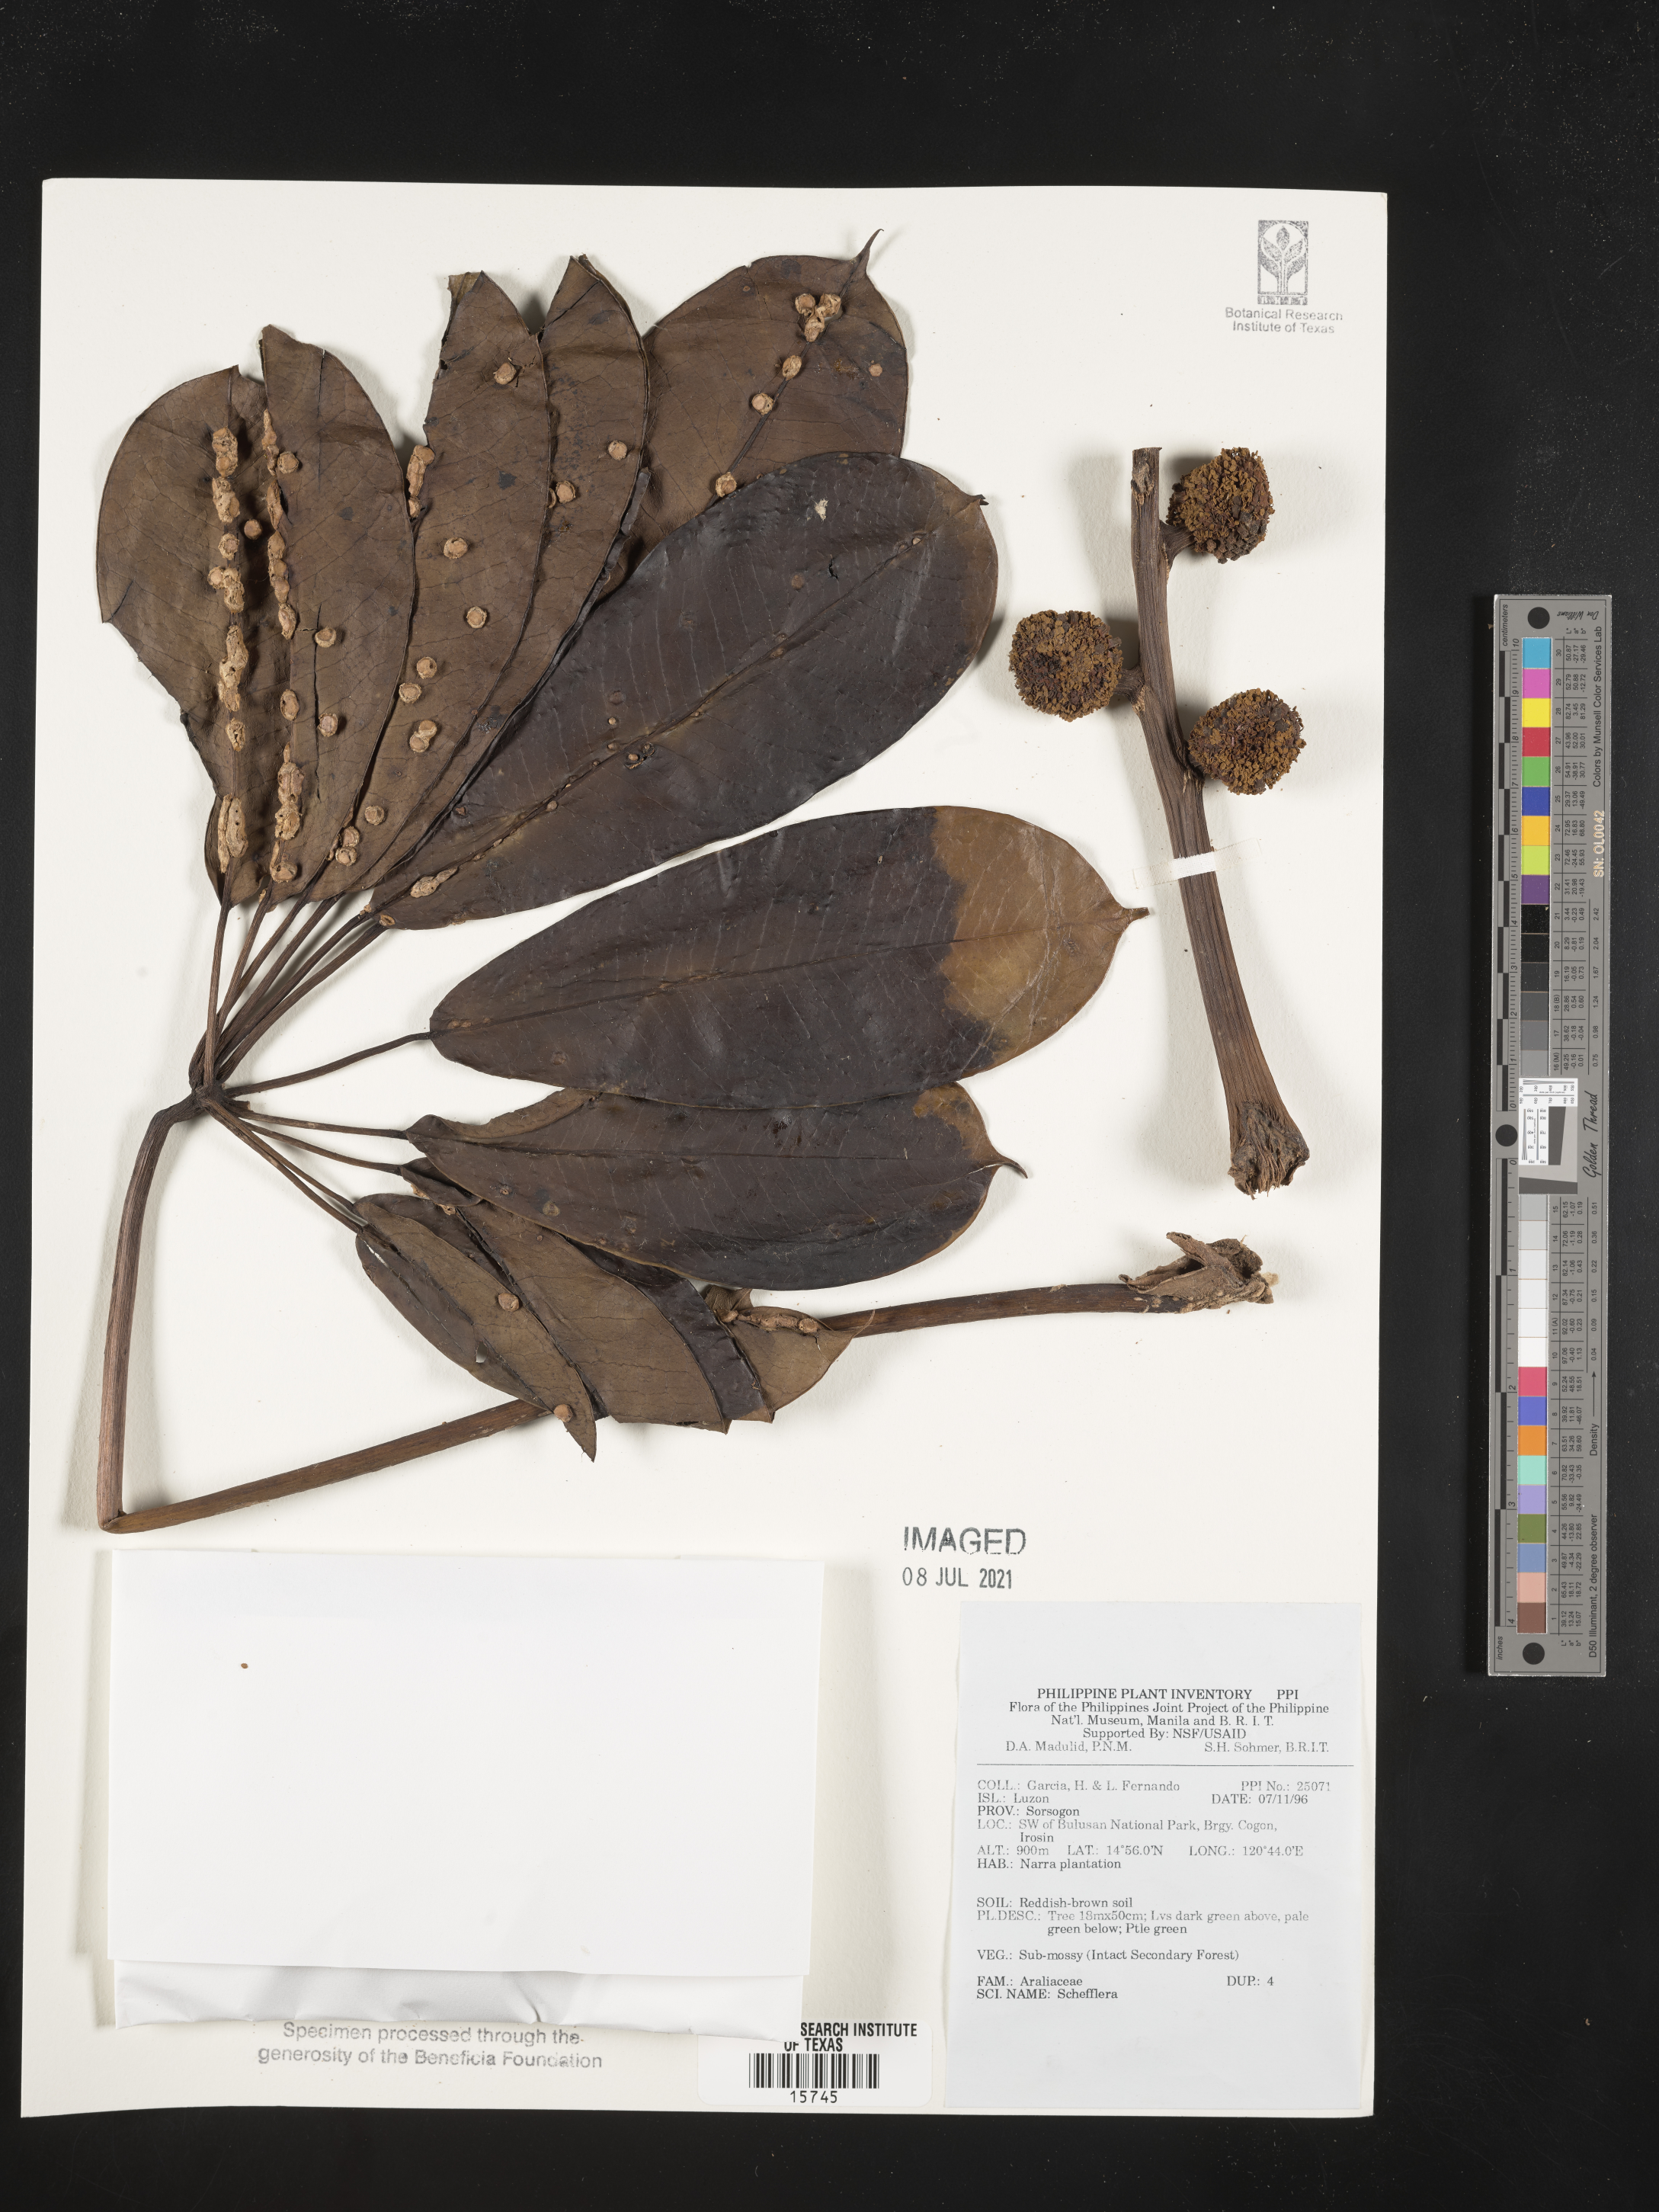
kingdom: Plantae
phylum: Tracheophyta
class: Magnoliopsida
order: Apiales
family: Araliaceae
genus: Schefflera
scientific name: Schefflera
